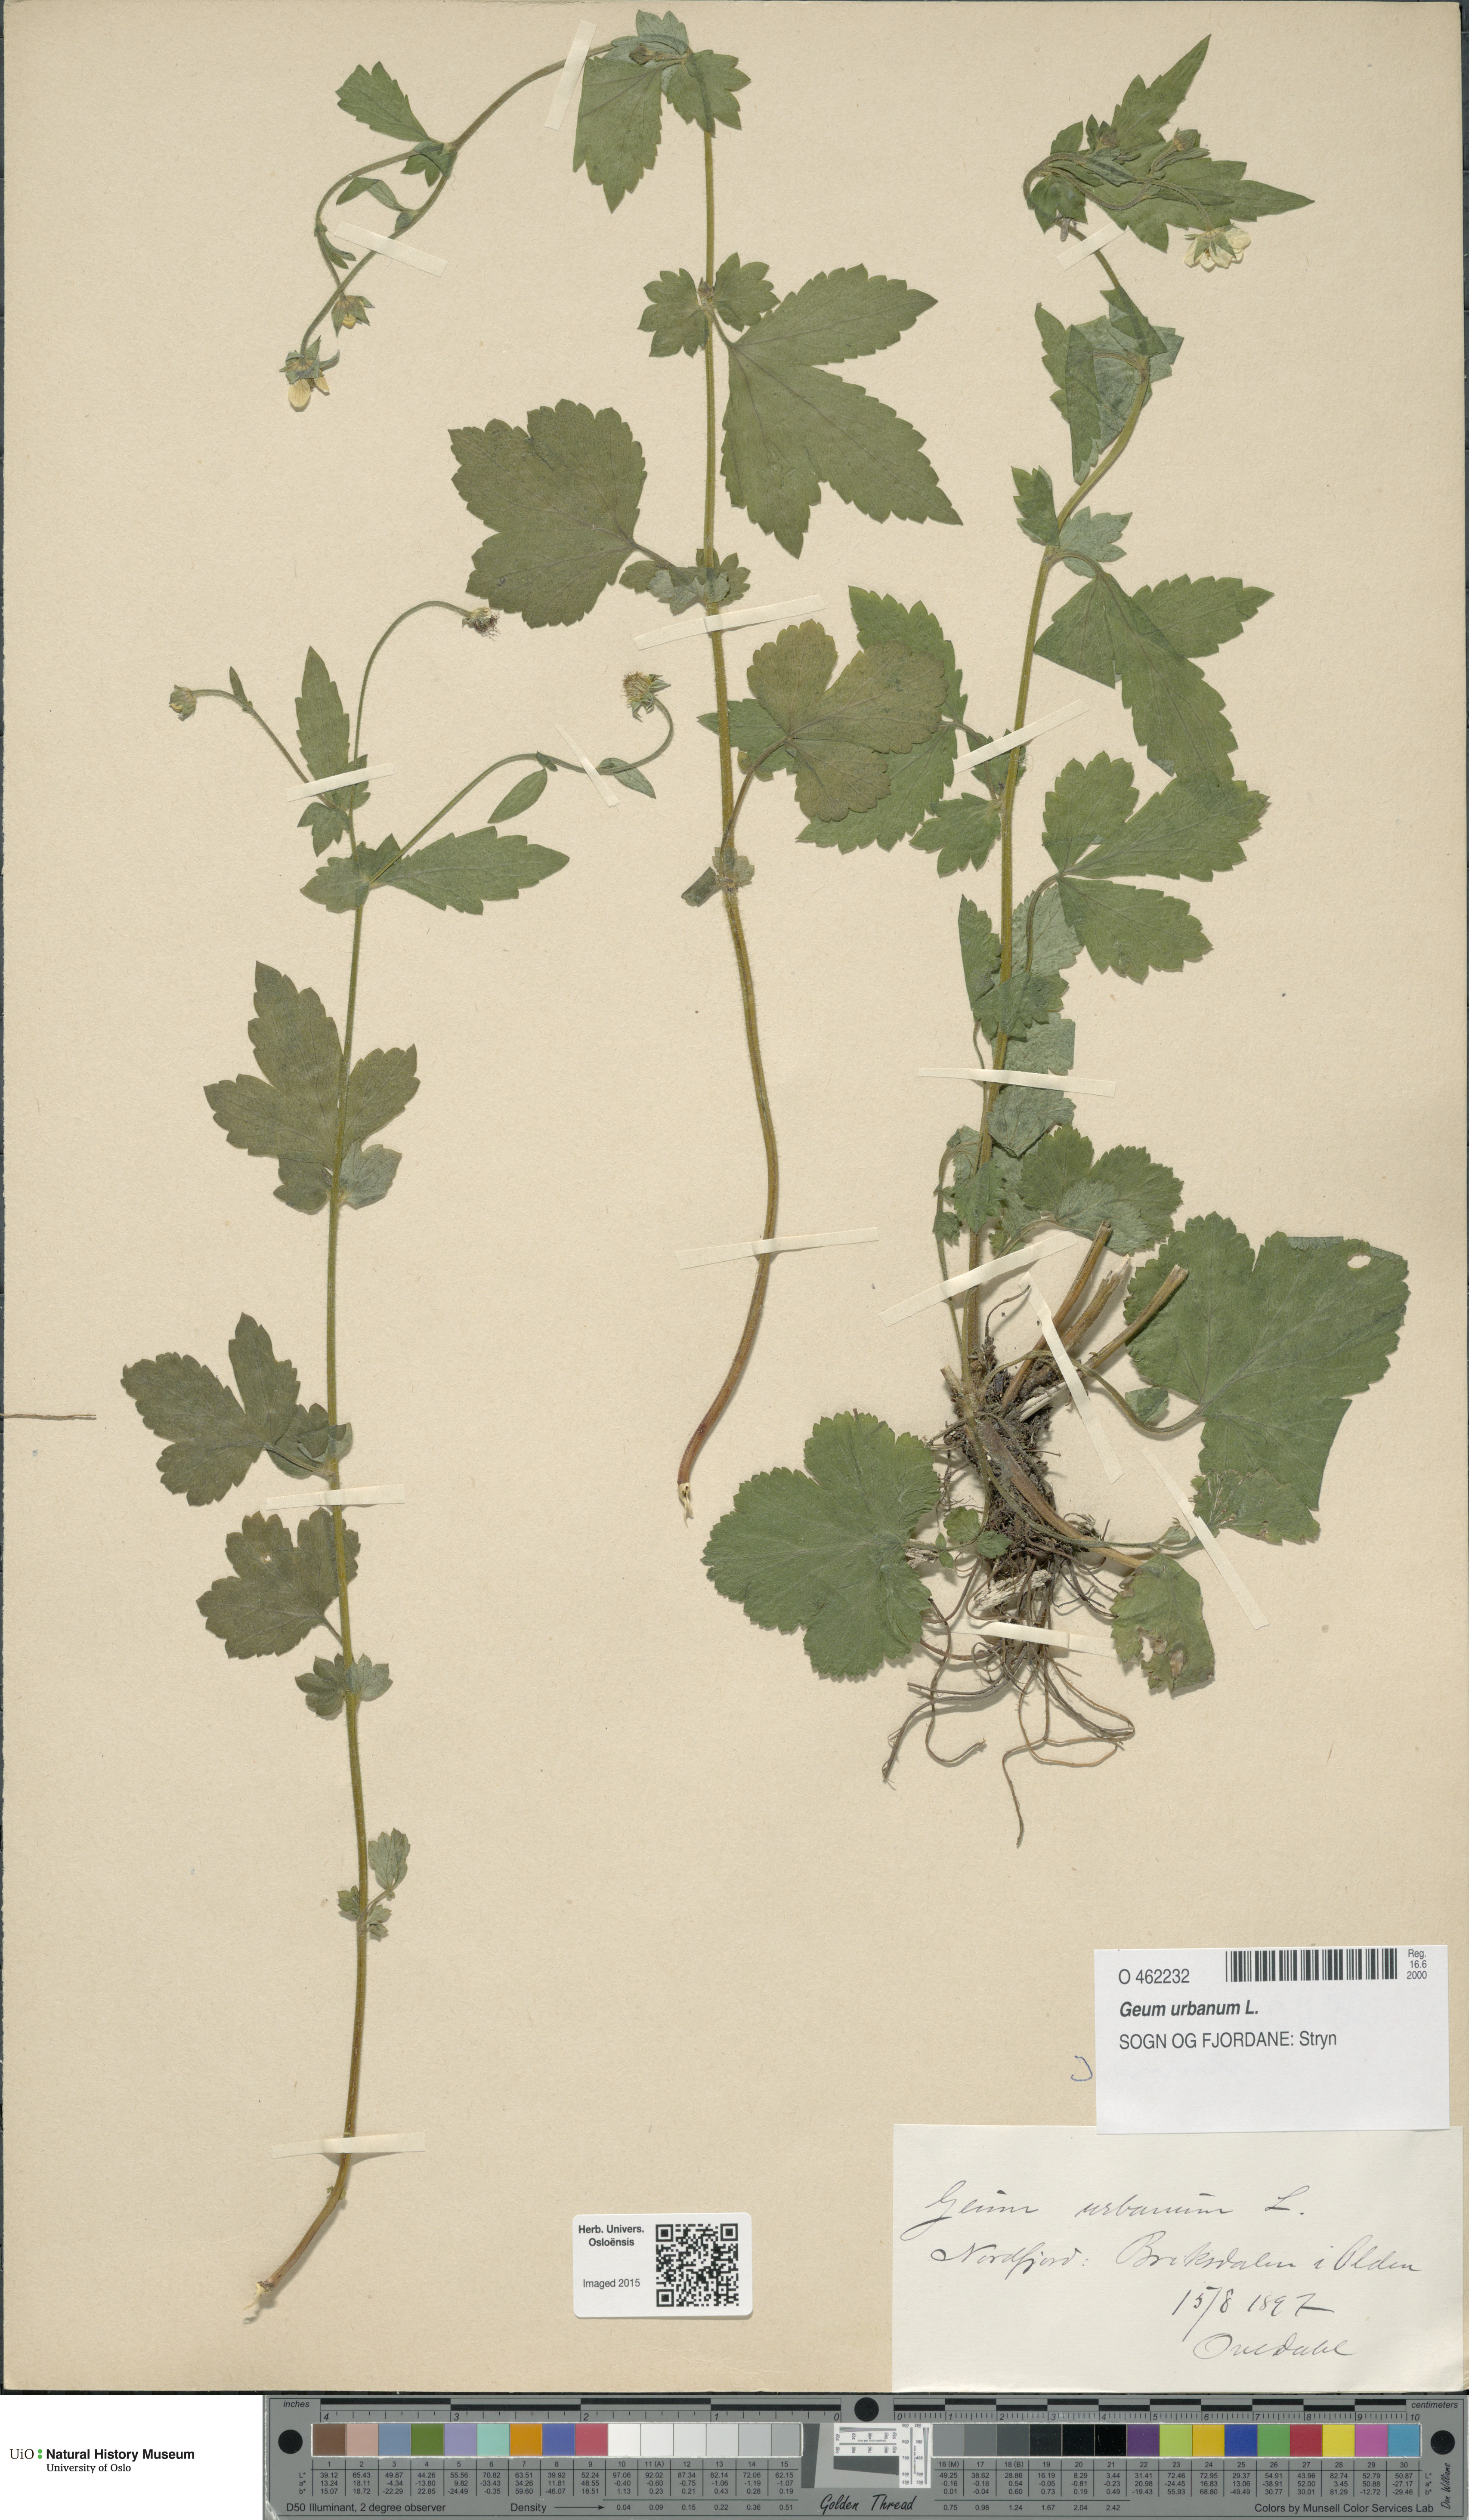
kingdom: Plantae
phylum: Tracheophyta
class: Magnoliopsida
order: Rosales
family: Rosaceae
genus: Geum
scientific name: Geum urbanum
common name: Wood avens
